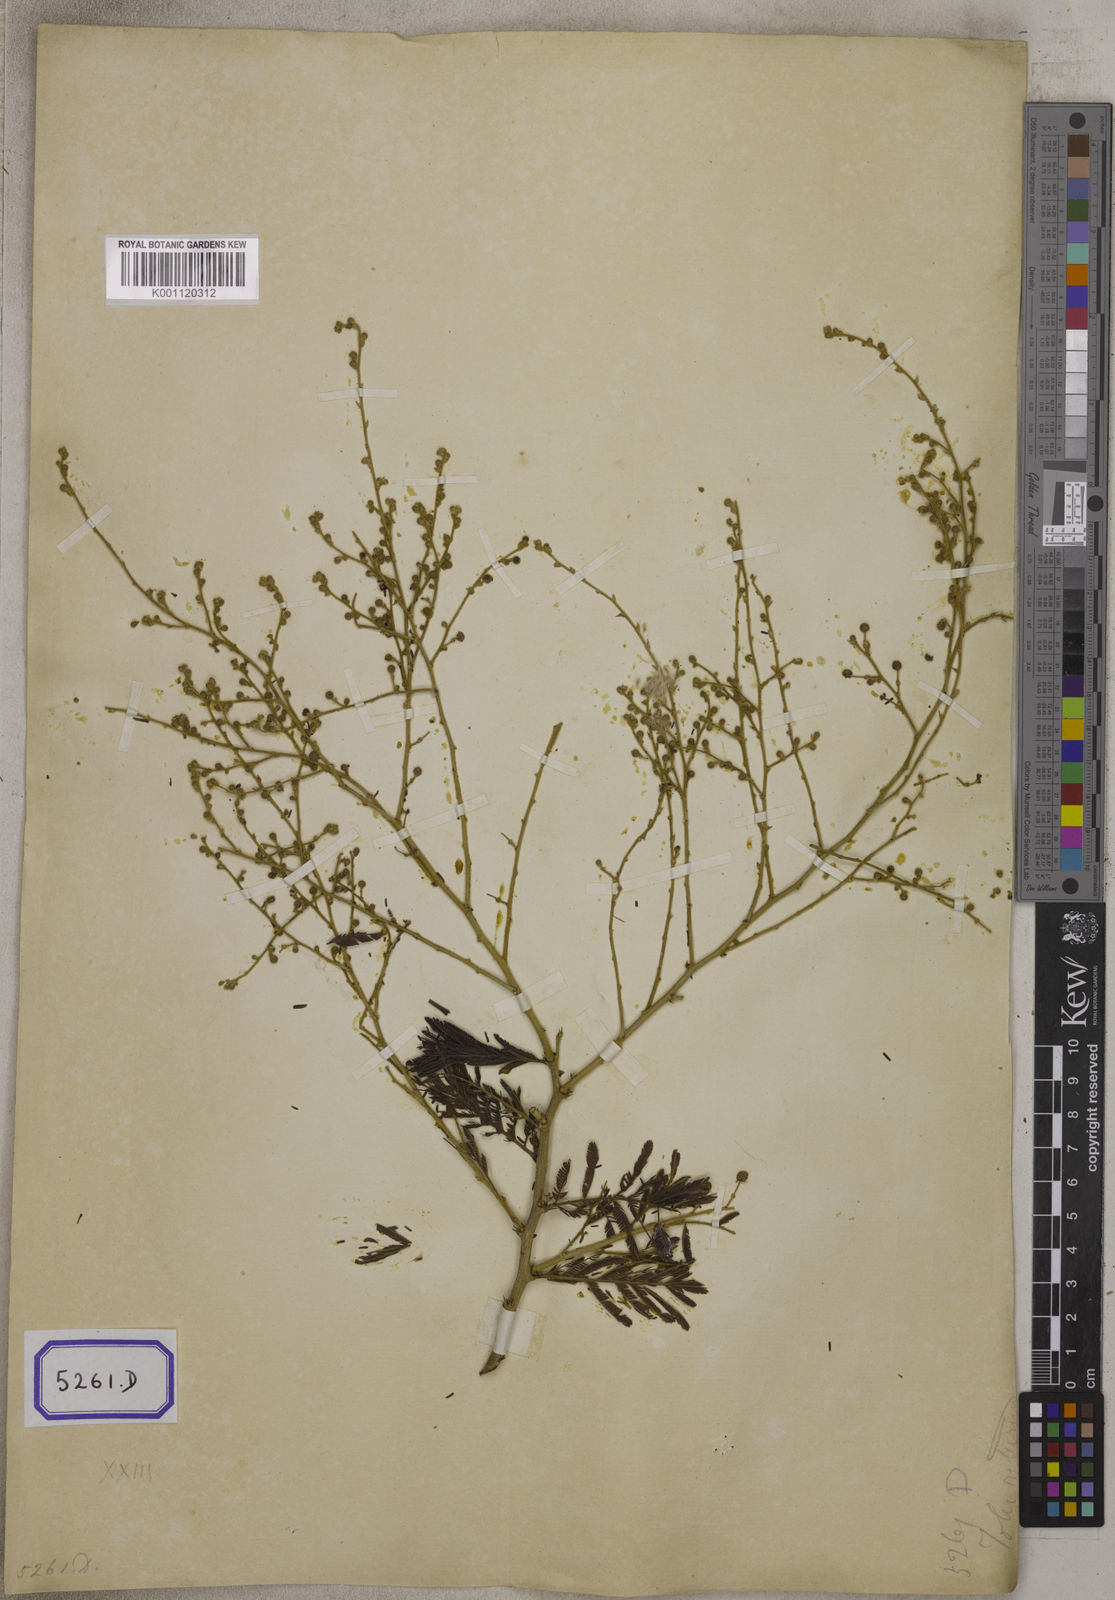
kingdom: Plantae
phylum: Tracheophyta
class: Magnoliopsida
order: Fabales
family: Fabaceae
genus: Vachellia
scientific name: Vachellia leucophloea
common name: Distiller's acacia
